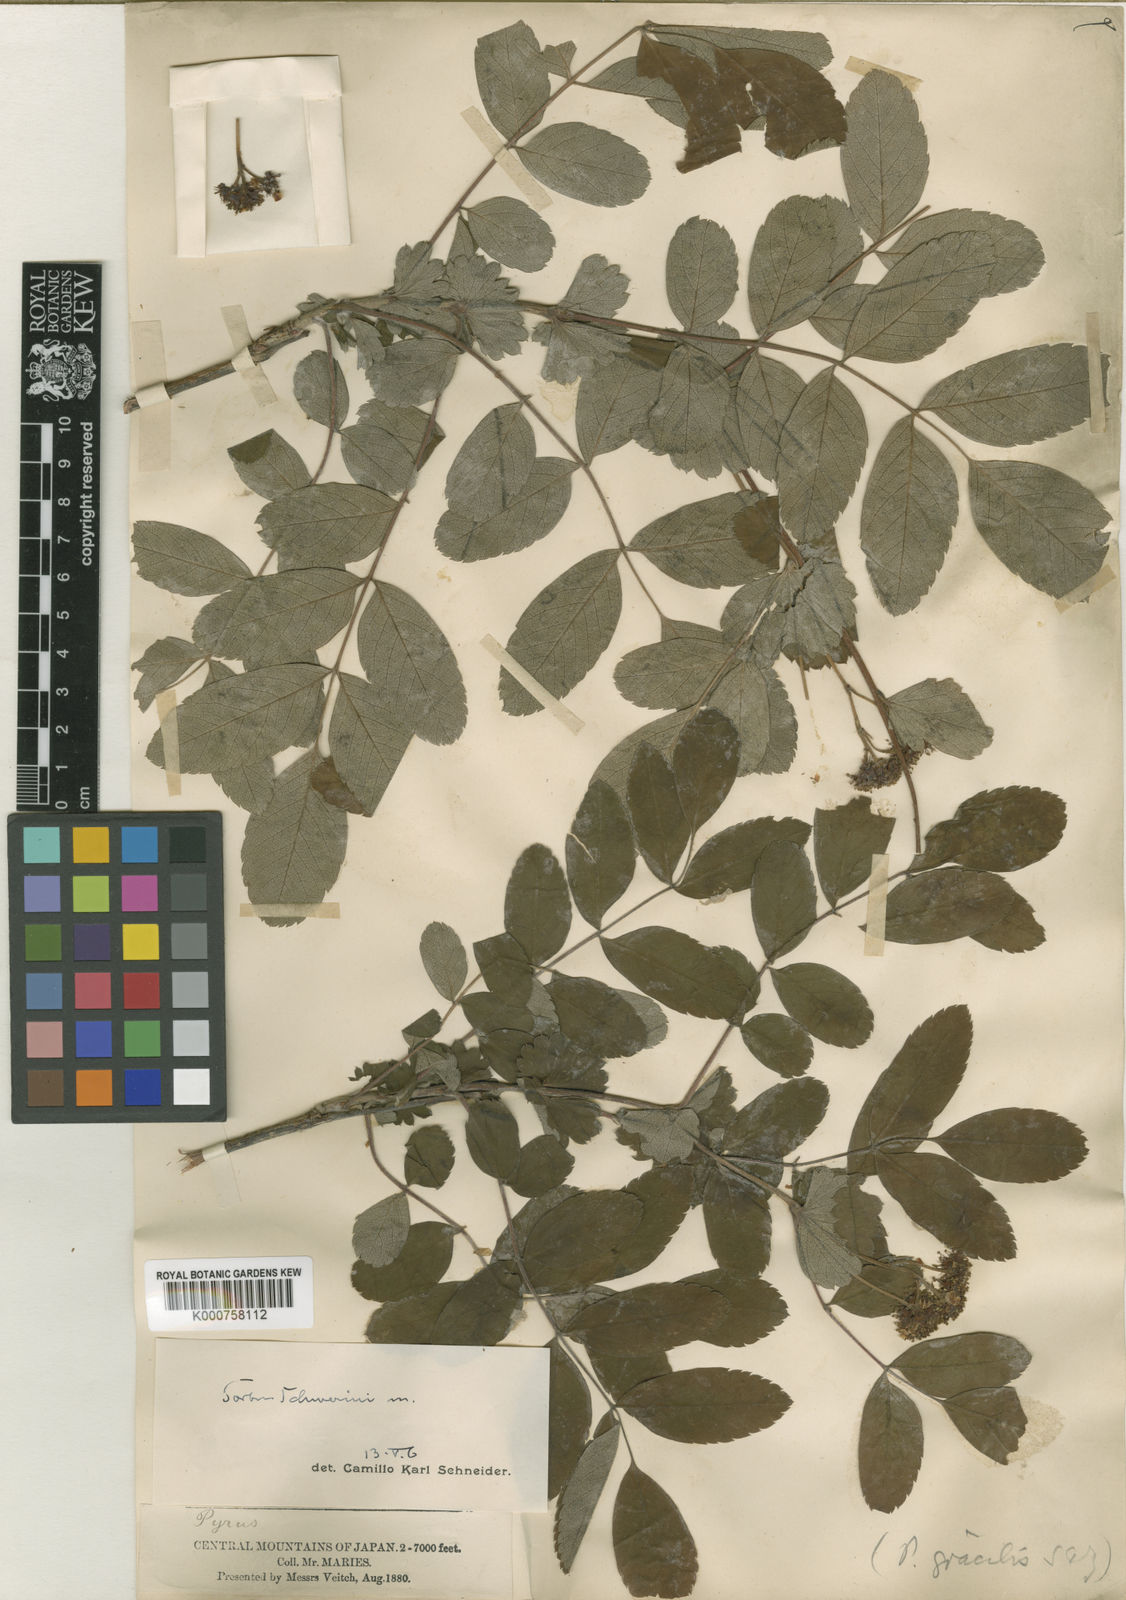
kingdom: Plantae
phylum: Tracheophyta
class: Magnoliopsida
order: Rosales
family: Rosaceae
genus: Sorbus
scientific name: Sorbus schwerinii
